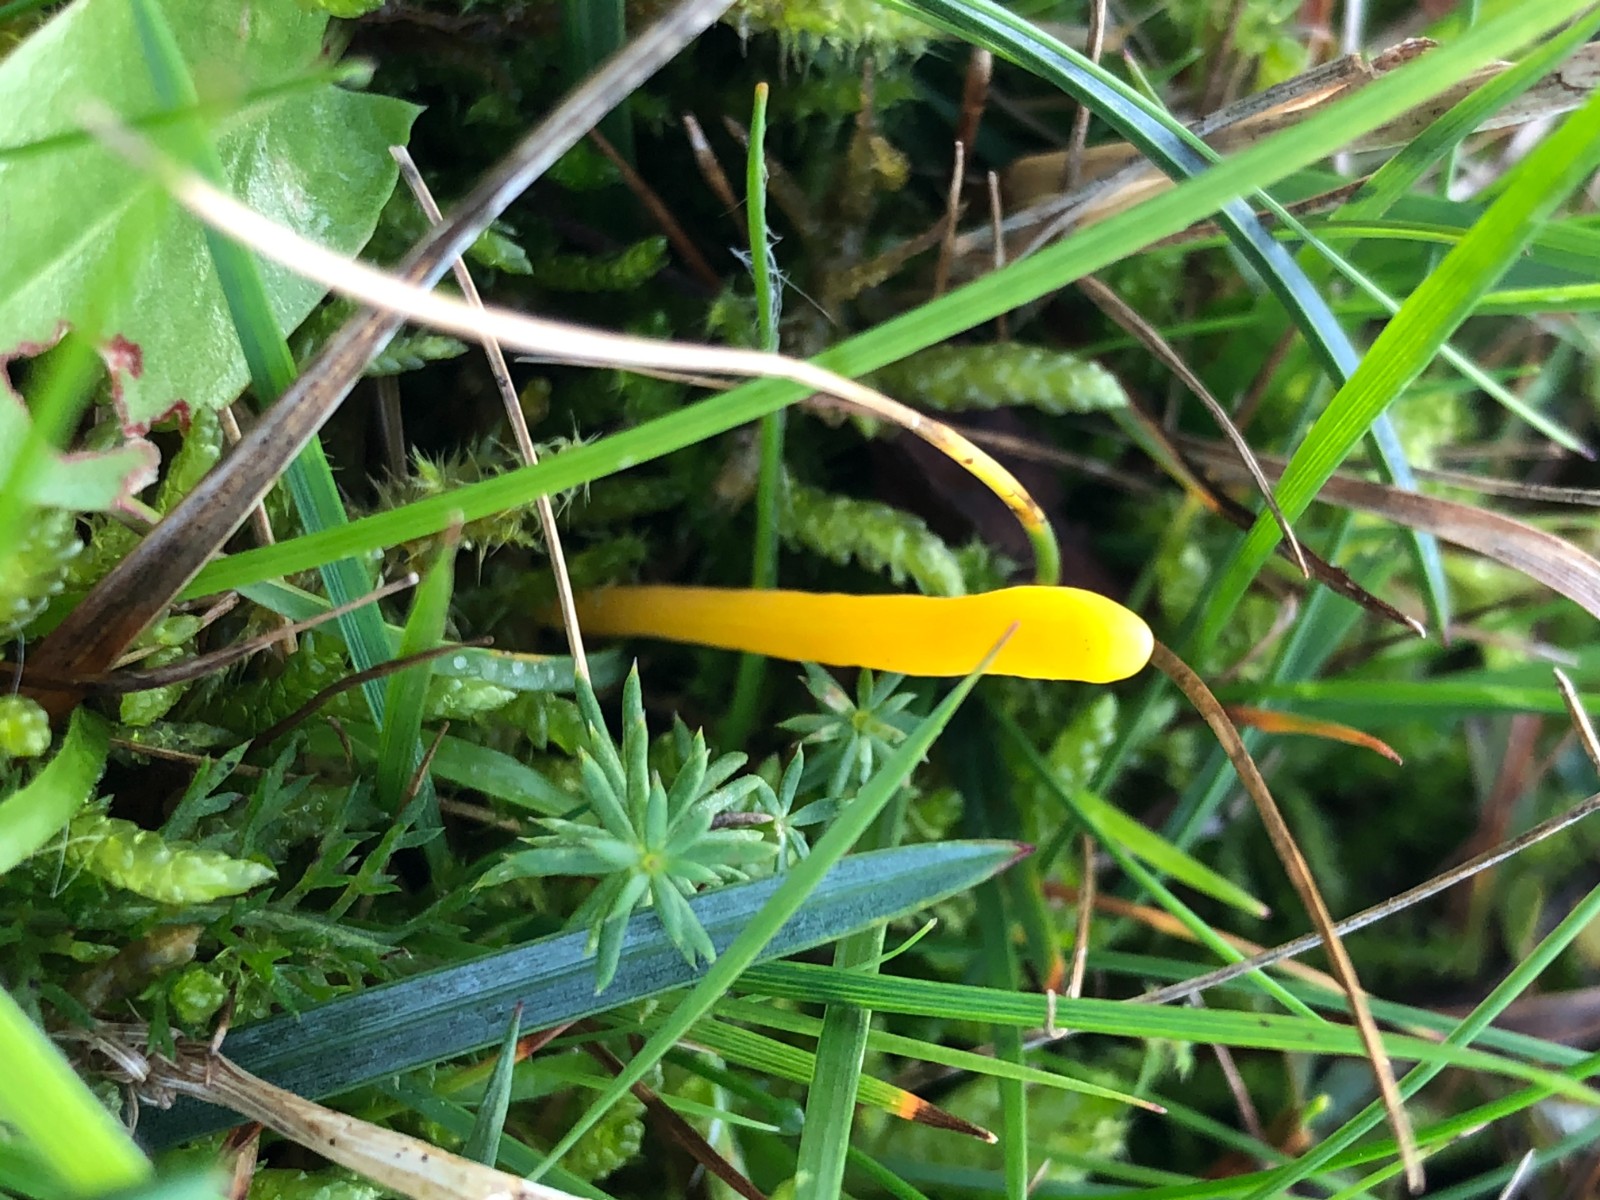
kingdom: Fungi
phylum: Basidiomycota
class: Agaricomycetes
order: Agaricales
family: Clavariaceae
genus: Clavulinopsis
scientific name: Clavulinopsis
